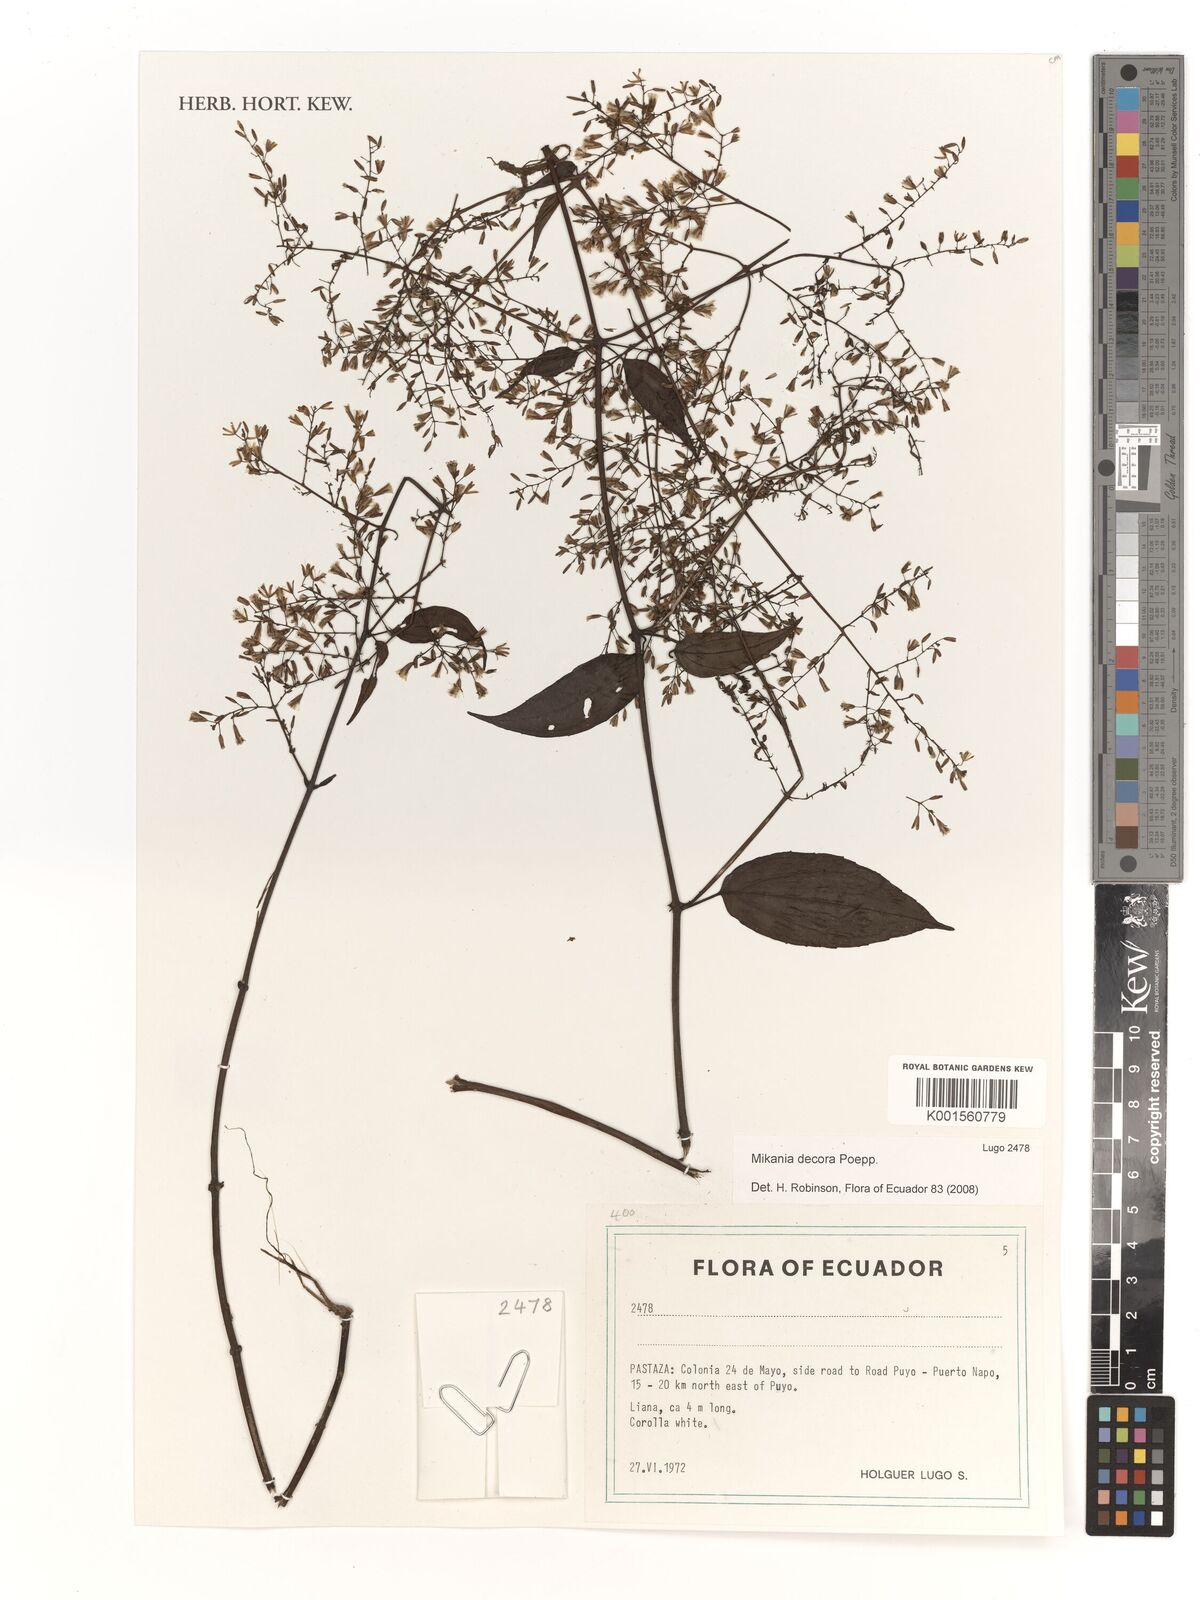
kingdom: Plantae
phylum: Tracheophyta
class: Magnoliopsida
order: Asterales
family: Asteraceae
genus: Mikania
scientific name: Mikania decora
